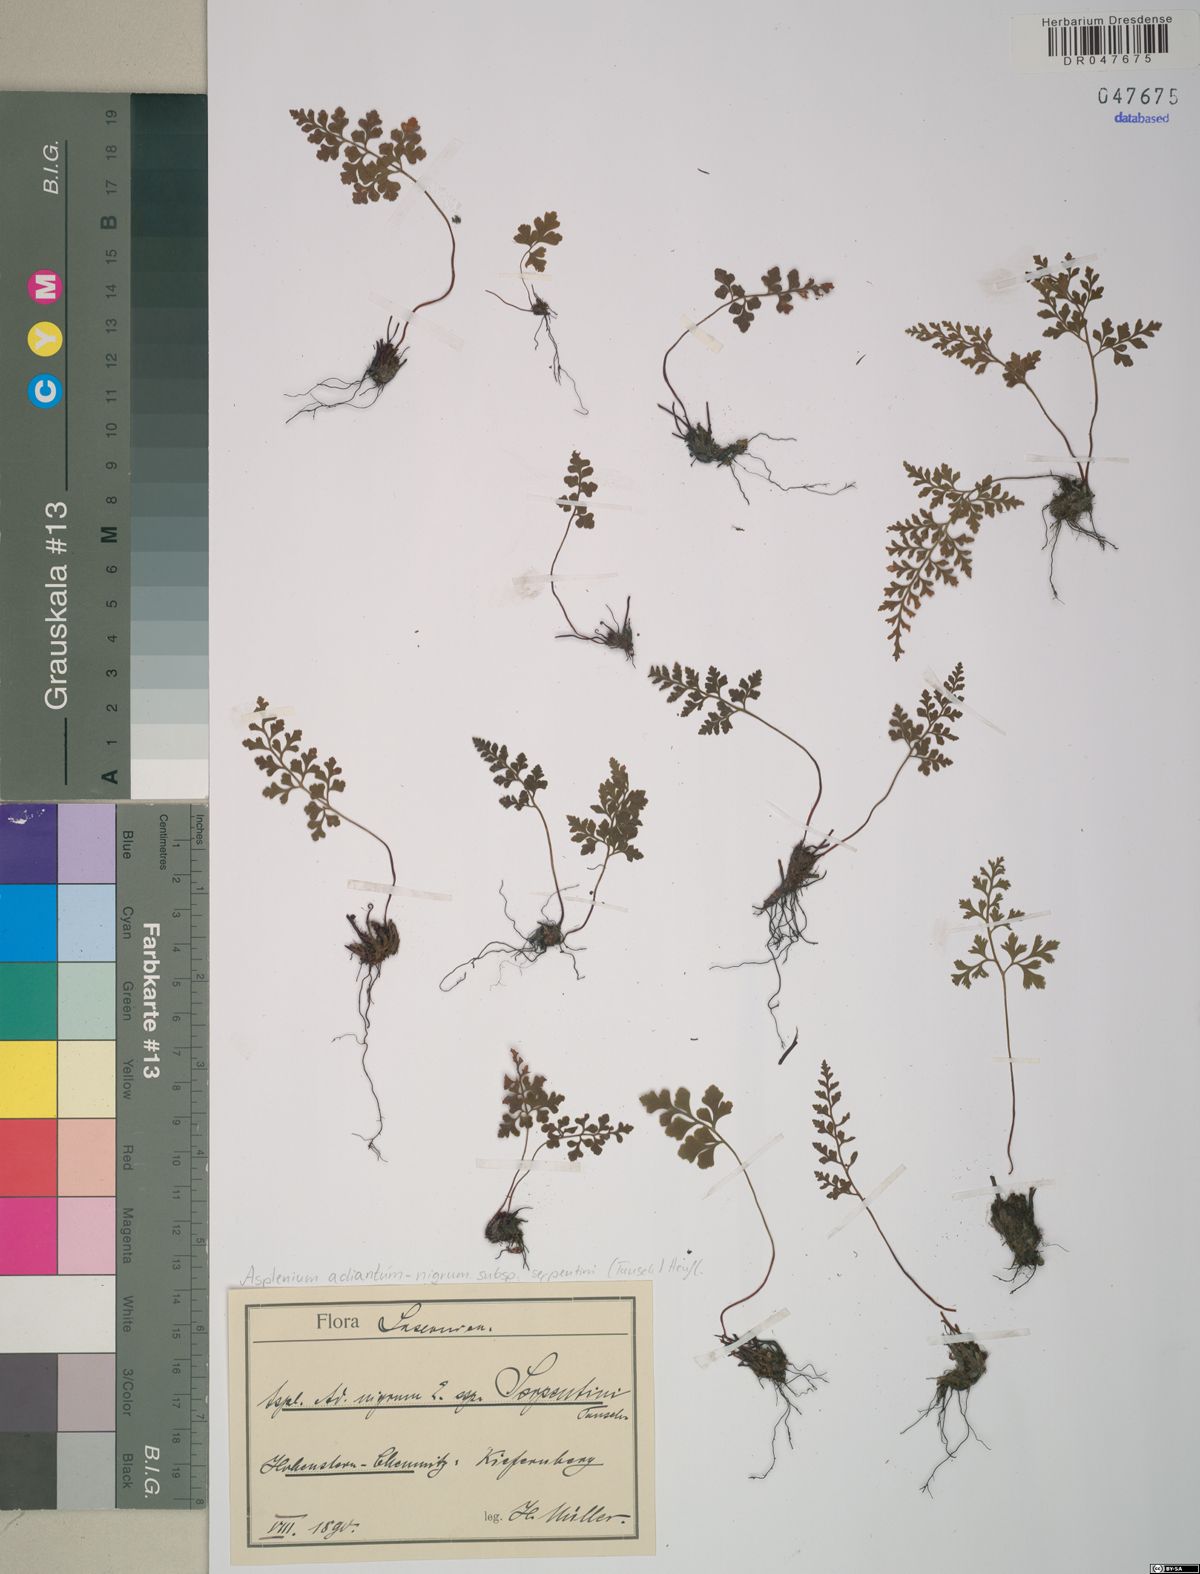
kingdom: Plantae
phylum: Tracheophyta
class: Polypodiopsida
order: Polypodiales
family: Aspleniaceae
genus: Asplenium
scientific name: Asplenium cuneifolium
